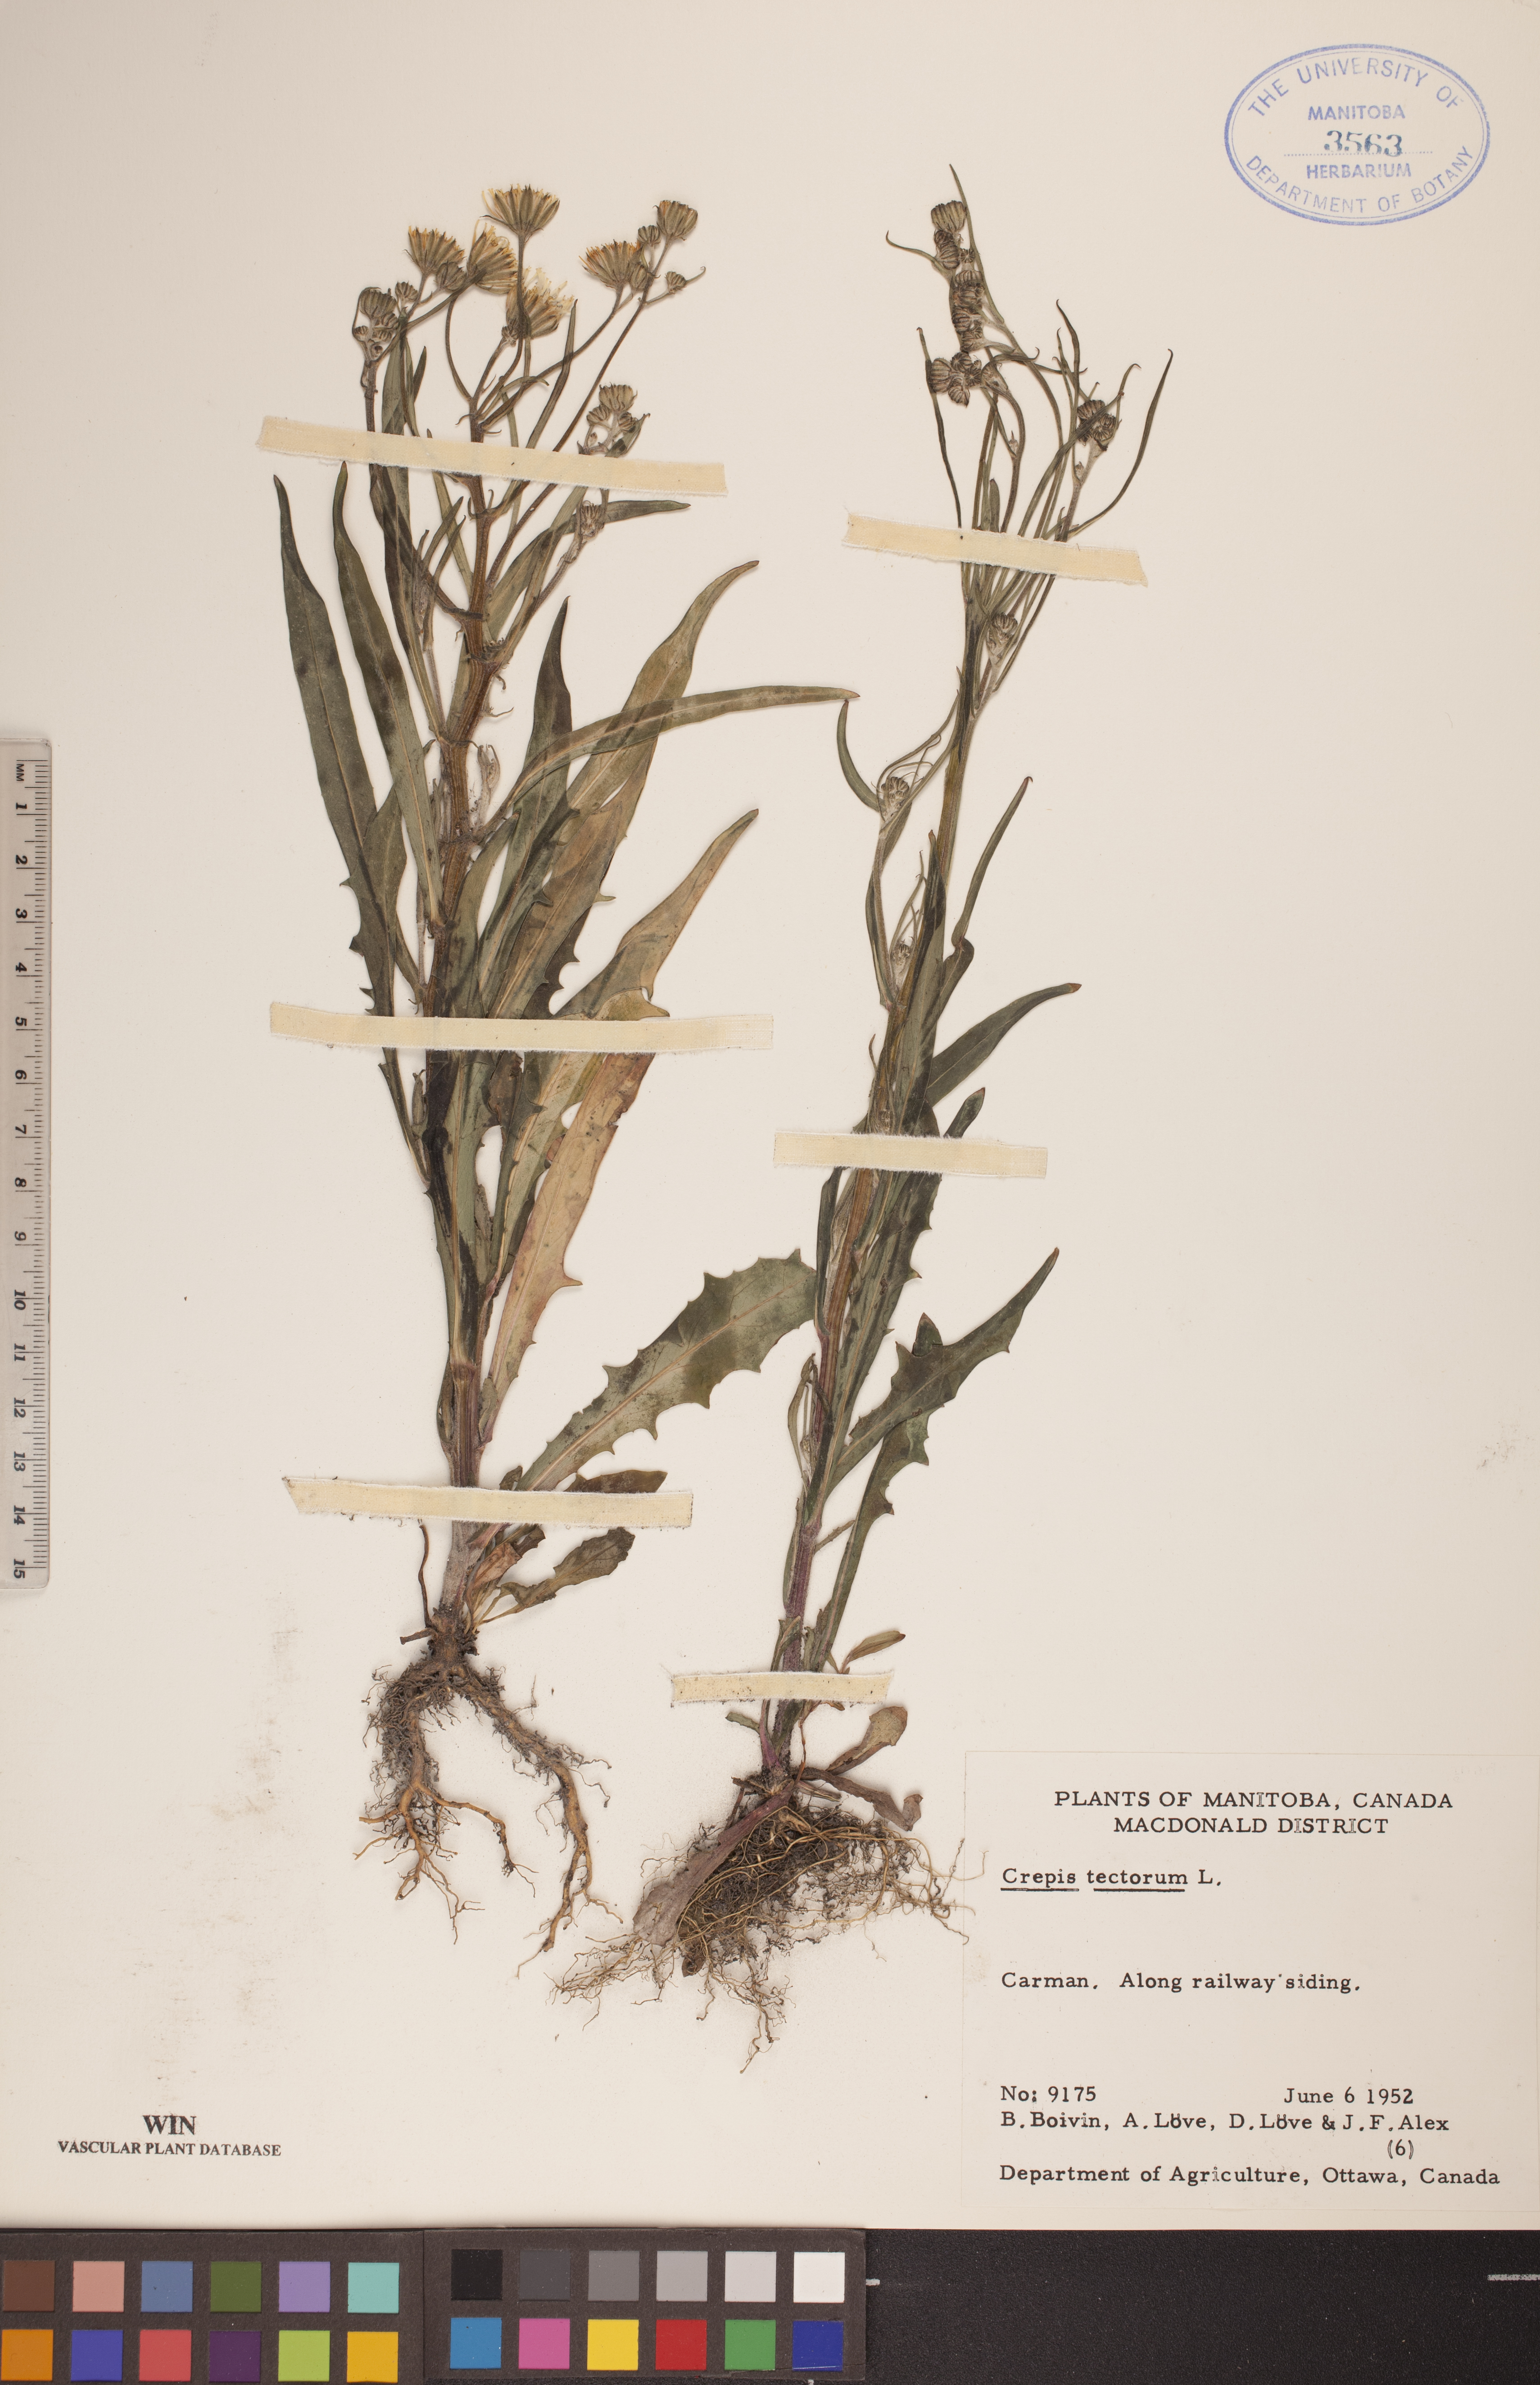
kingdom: Plantae
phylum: Tracheophyta
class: Magnoliopsida
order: Asterales
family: Asteraceae
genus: Crepis
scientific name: Crepis tectorum
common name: Narrow-leaved hawk's-beard
